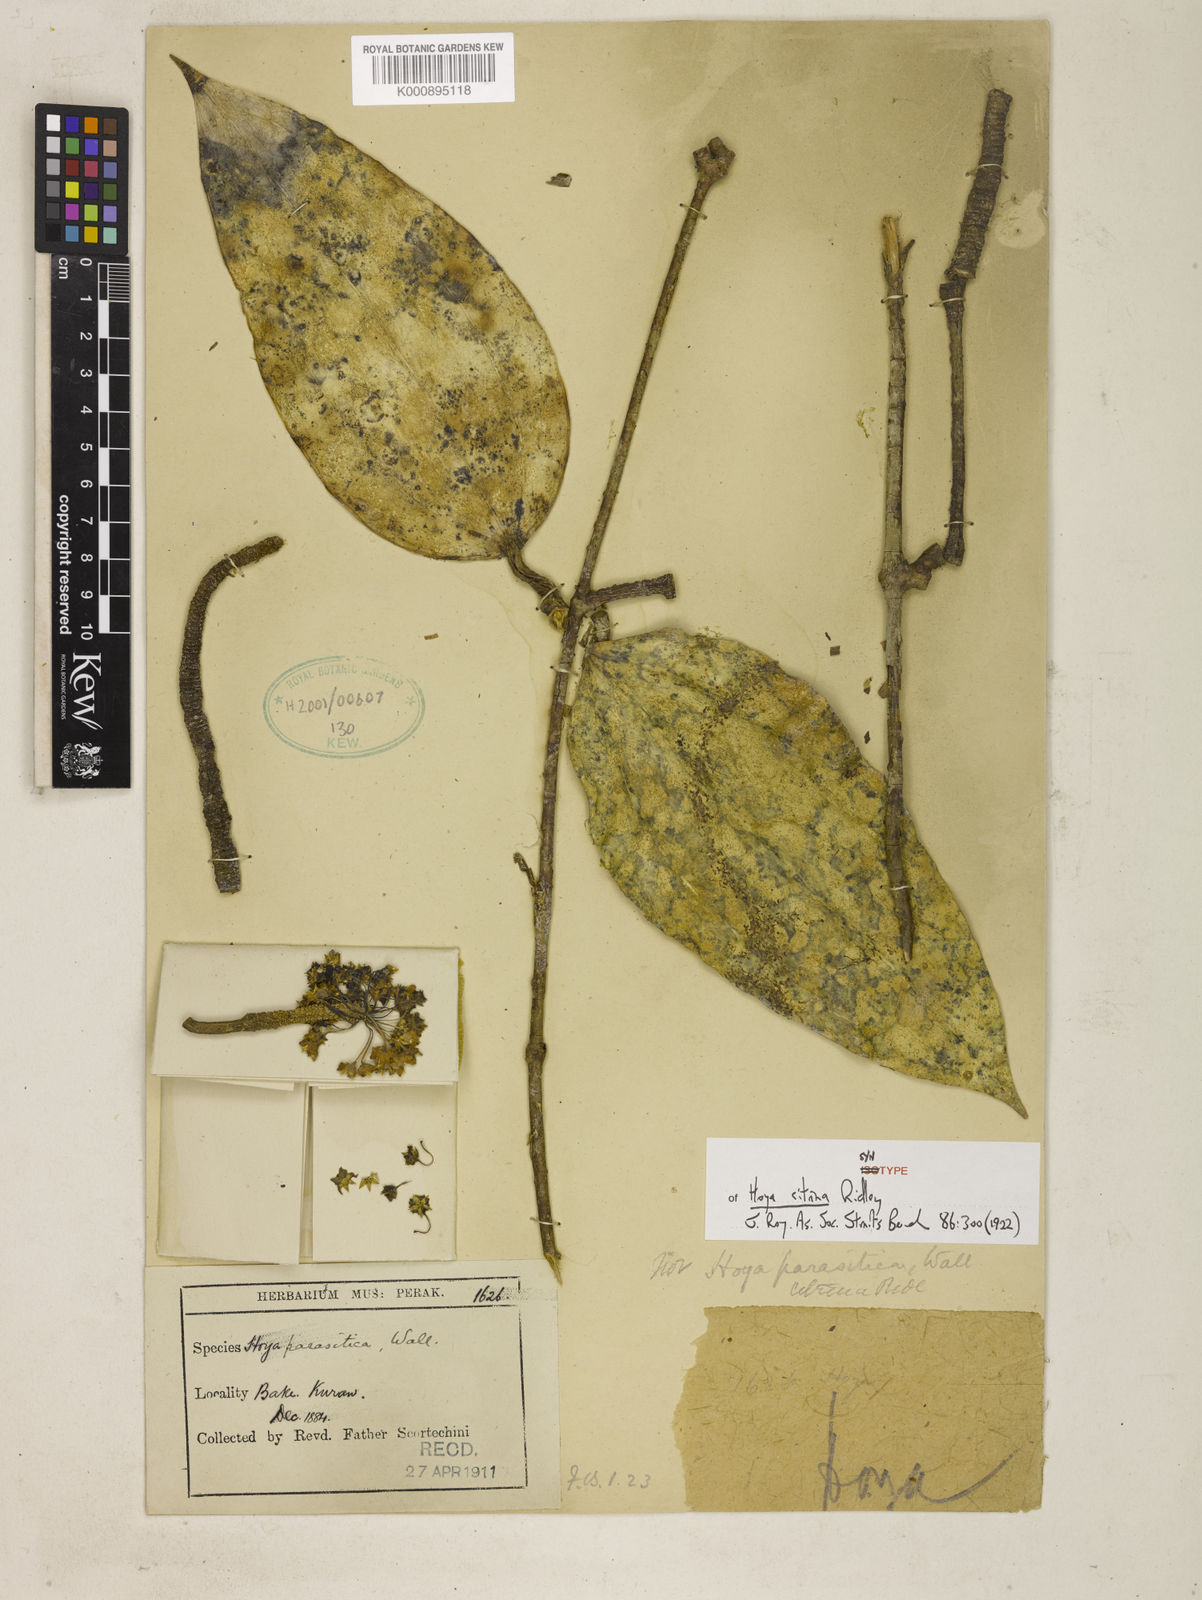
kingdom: Plantae
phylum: Tracheophyta
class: Magnoliopsida
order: Gentianales
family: Apocynaceae
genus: Hoya
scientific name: Hoya verticillata
